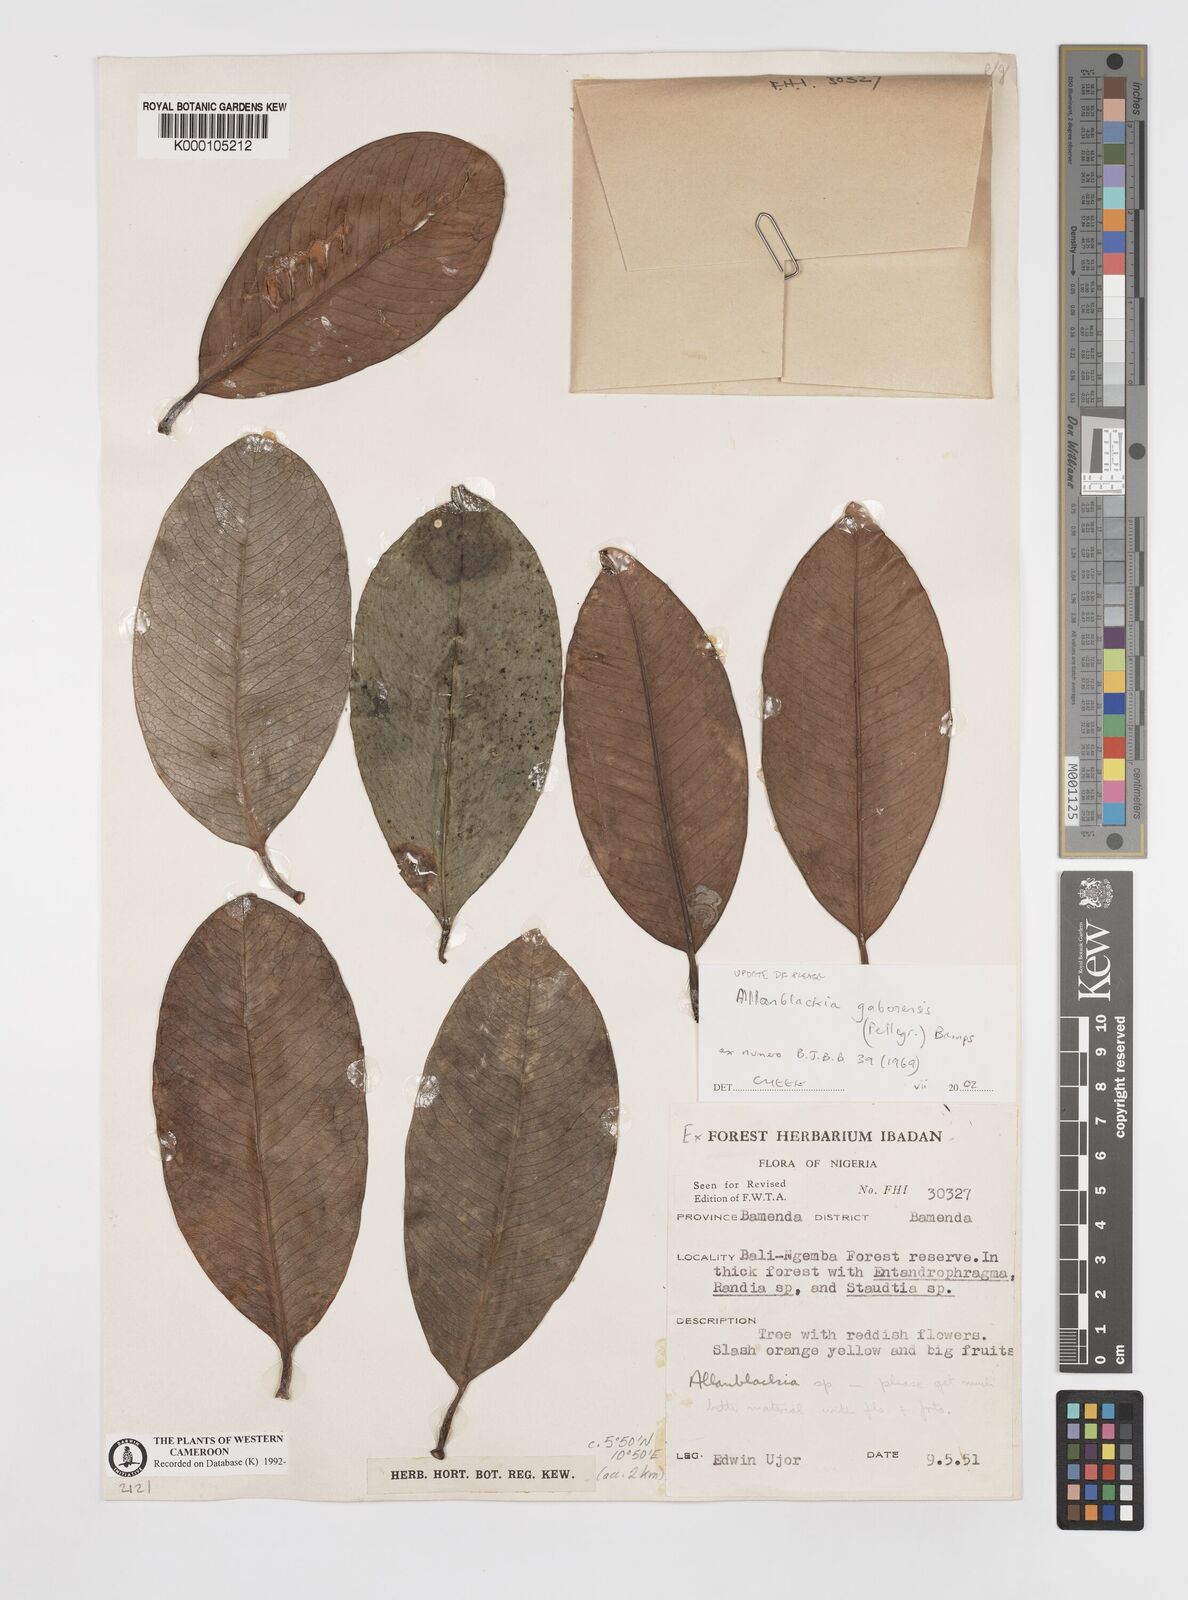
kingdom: Plantae
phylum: Tracheophyta
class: Magnoliopsida
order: Malpighiales
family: Clusiaceae
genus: Allanblackia
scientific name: Allanblackia gabonensis
